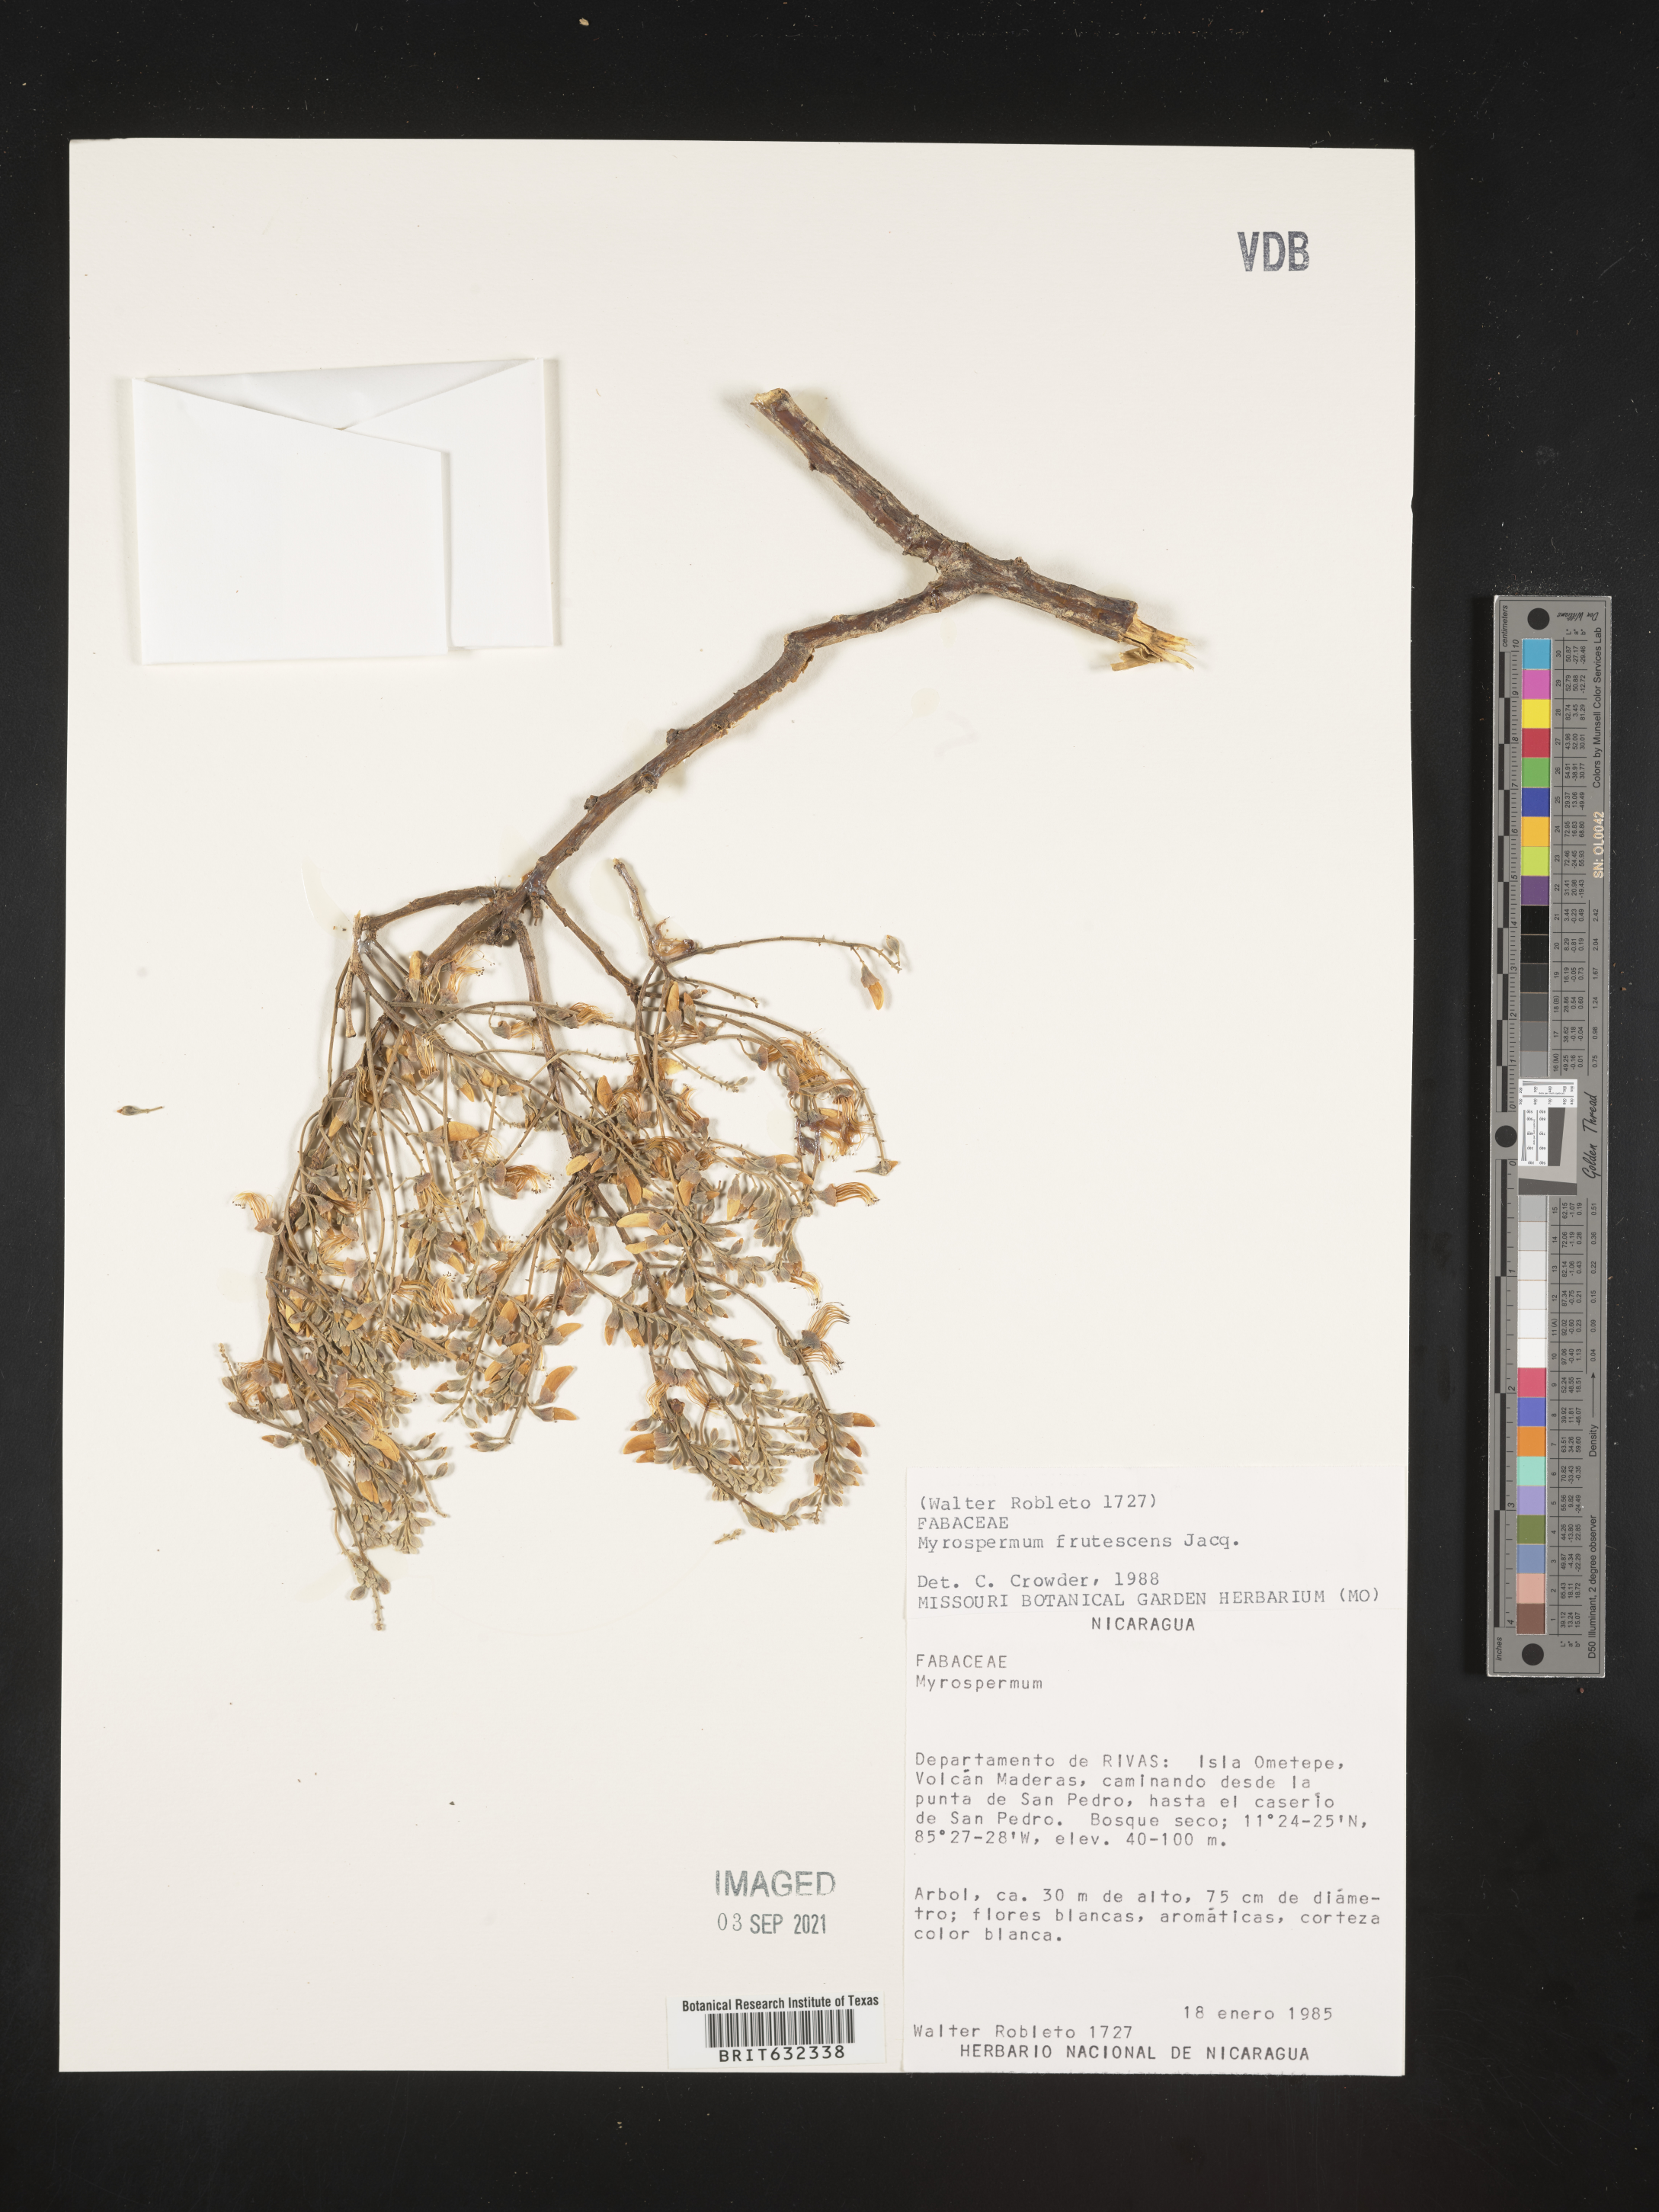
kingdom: Plantae
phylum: Tracheophyta
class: Magnoliopsida
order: Fabales
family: Fabaceae
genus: Myrospermum
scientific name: Myrospermum
